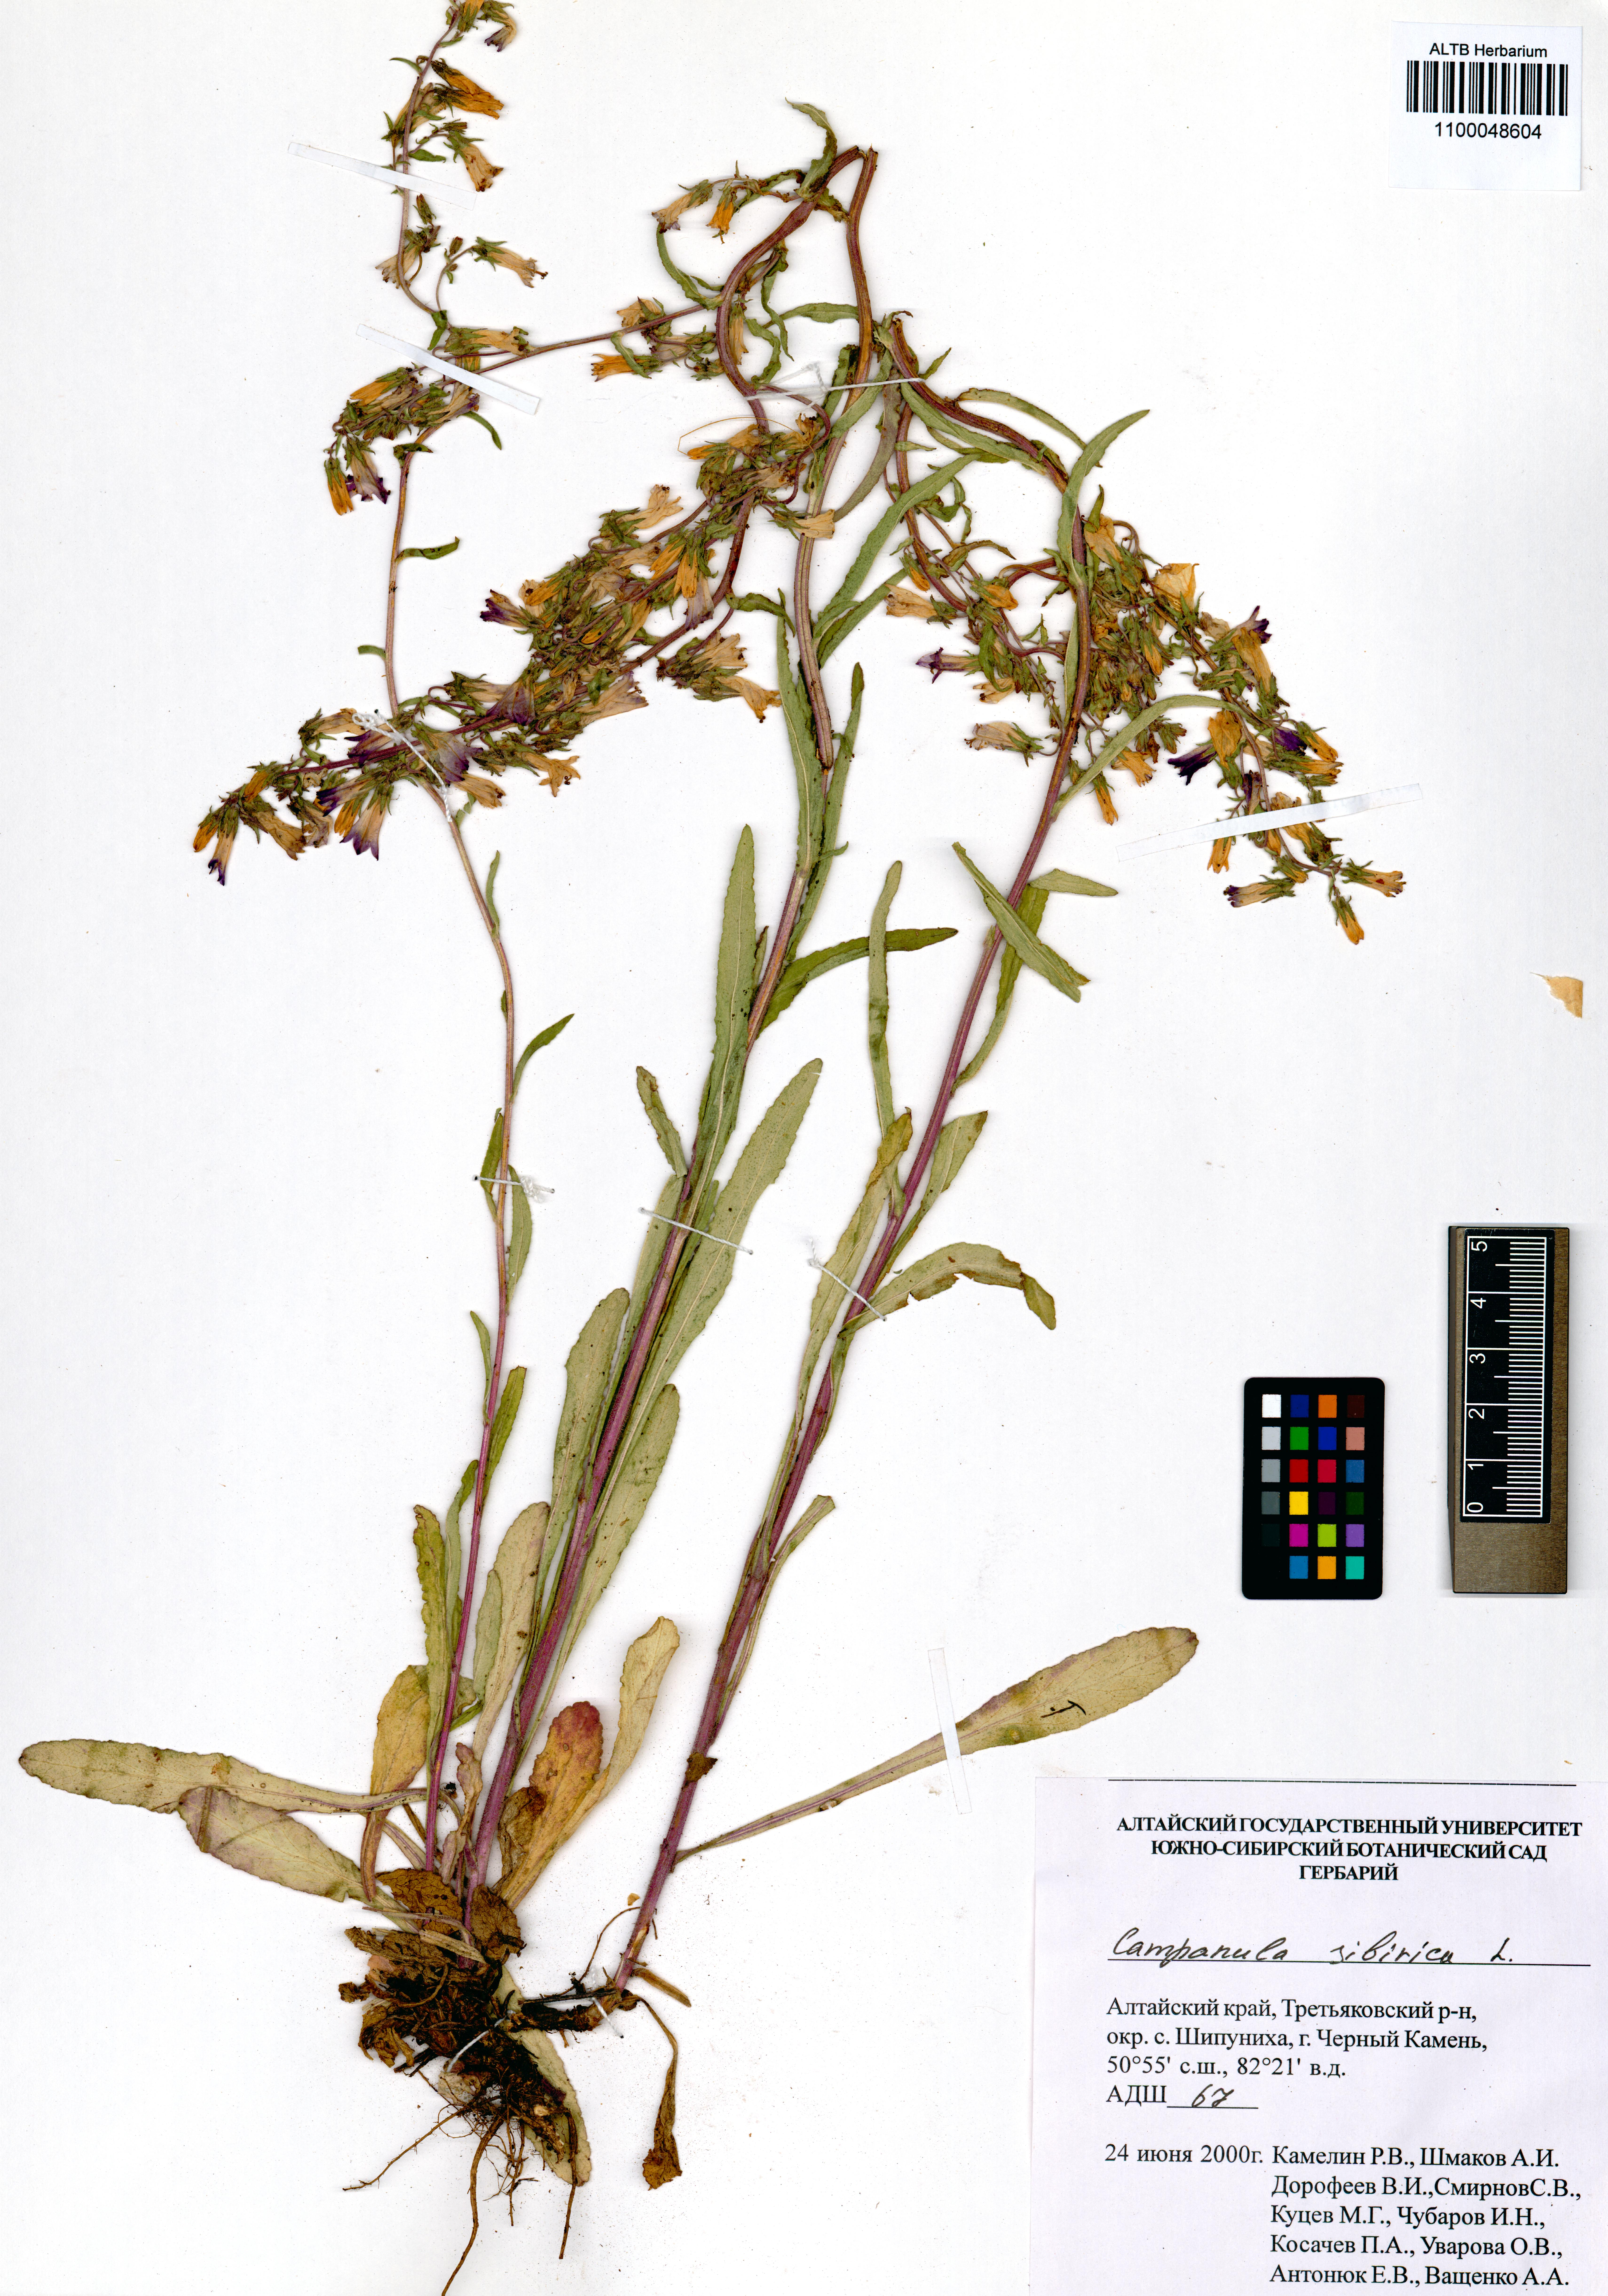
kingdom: Plantae
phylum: Tracheophyta
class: Magnoliopsida
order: Asterales
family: Campanulaceae
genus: Campanula
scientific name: Campanula sibirica
